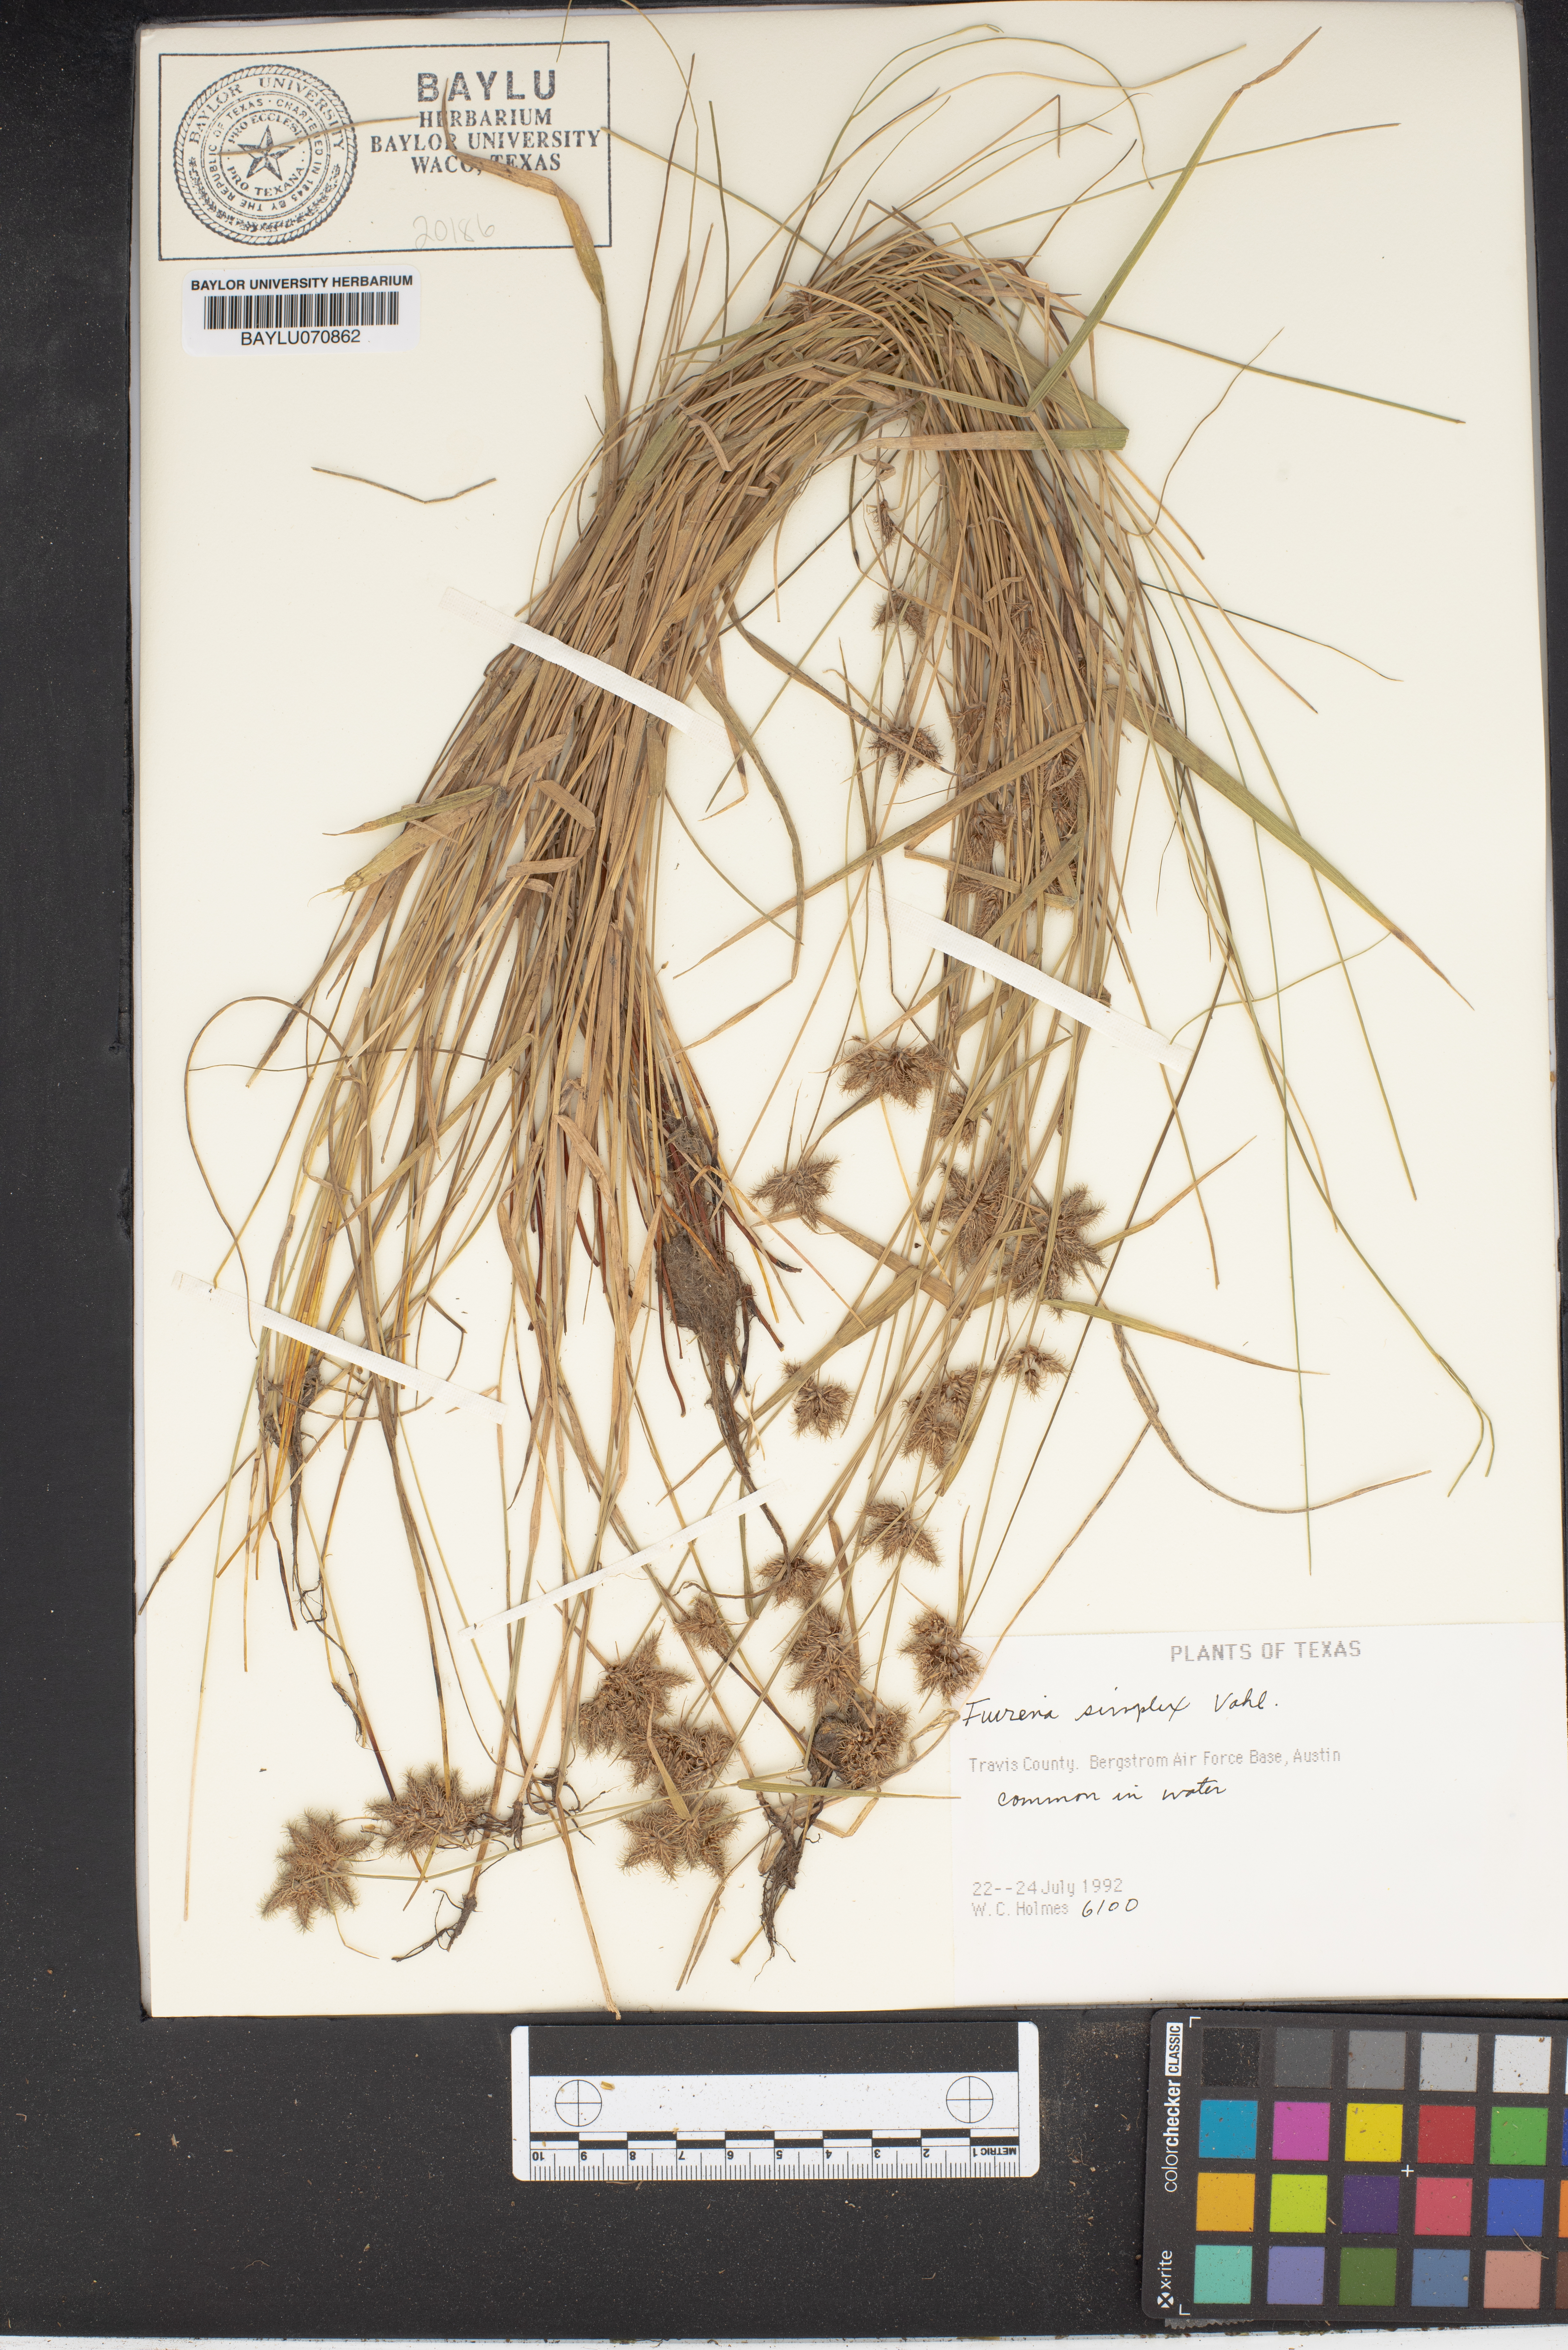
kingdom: Plantae
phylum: Tracheophyta
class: Liliopsida
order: Poales
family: Cyperaceae
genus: Fuirena
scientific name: Fuirena simplex
